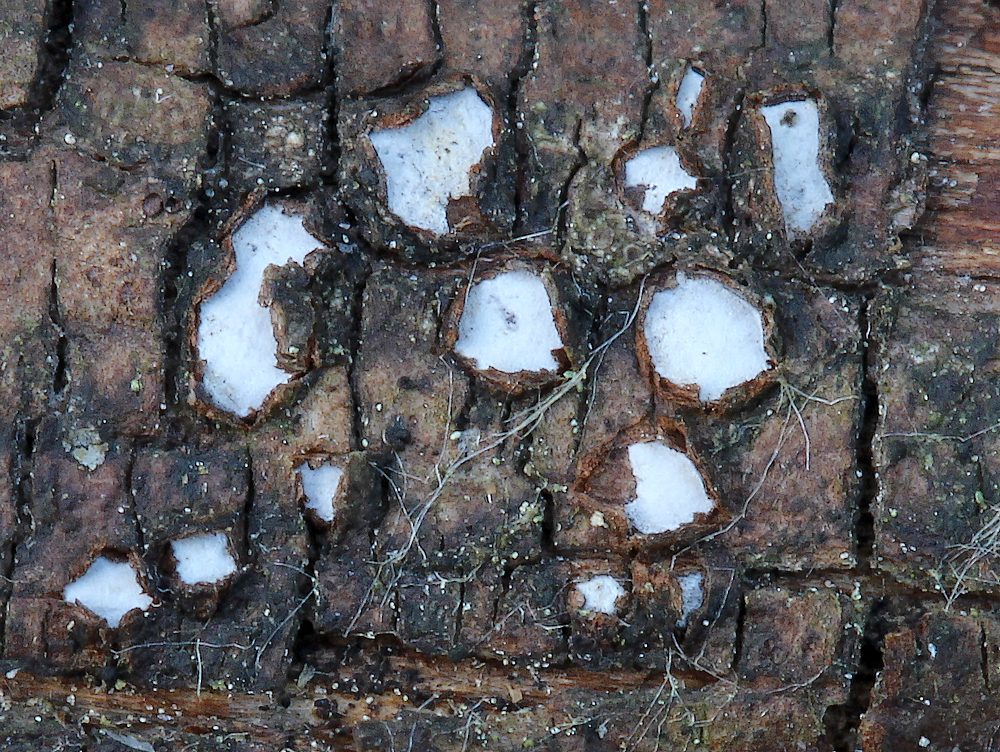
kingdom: Fungi
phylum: Ascomycota
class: Leotiomycetes
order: Chaetomellales
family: Marthamycetaceae
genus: Propolis
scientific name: Propolis farinosa
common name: almindelig vedsprængerskive
